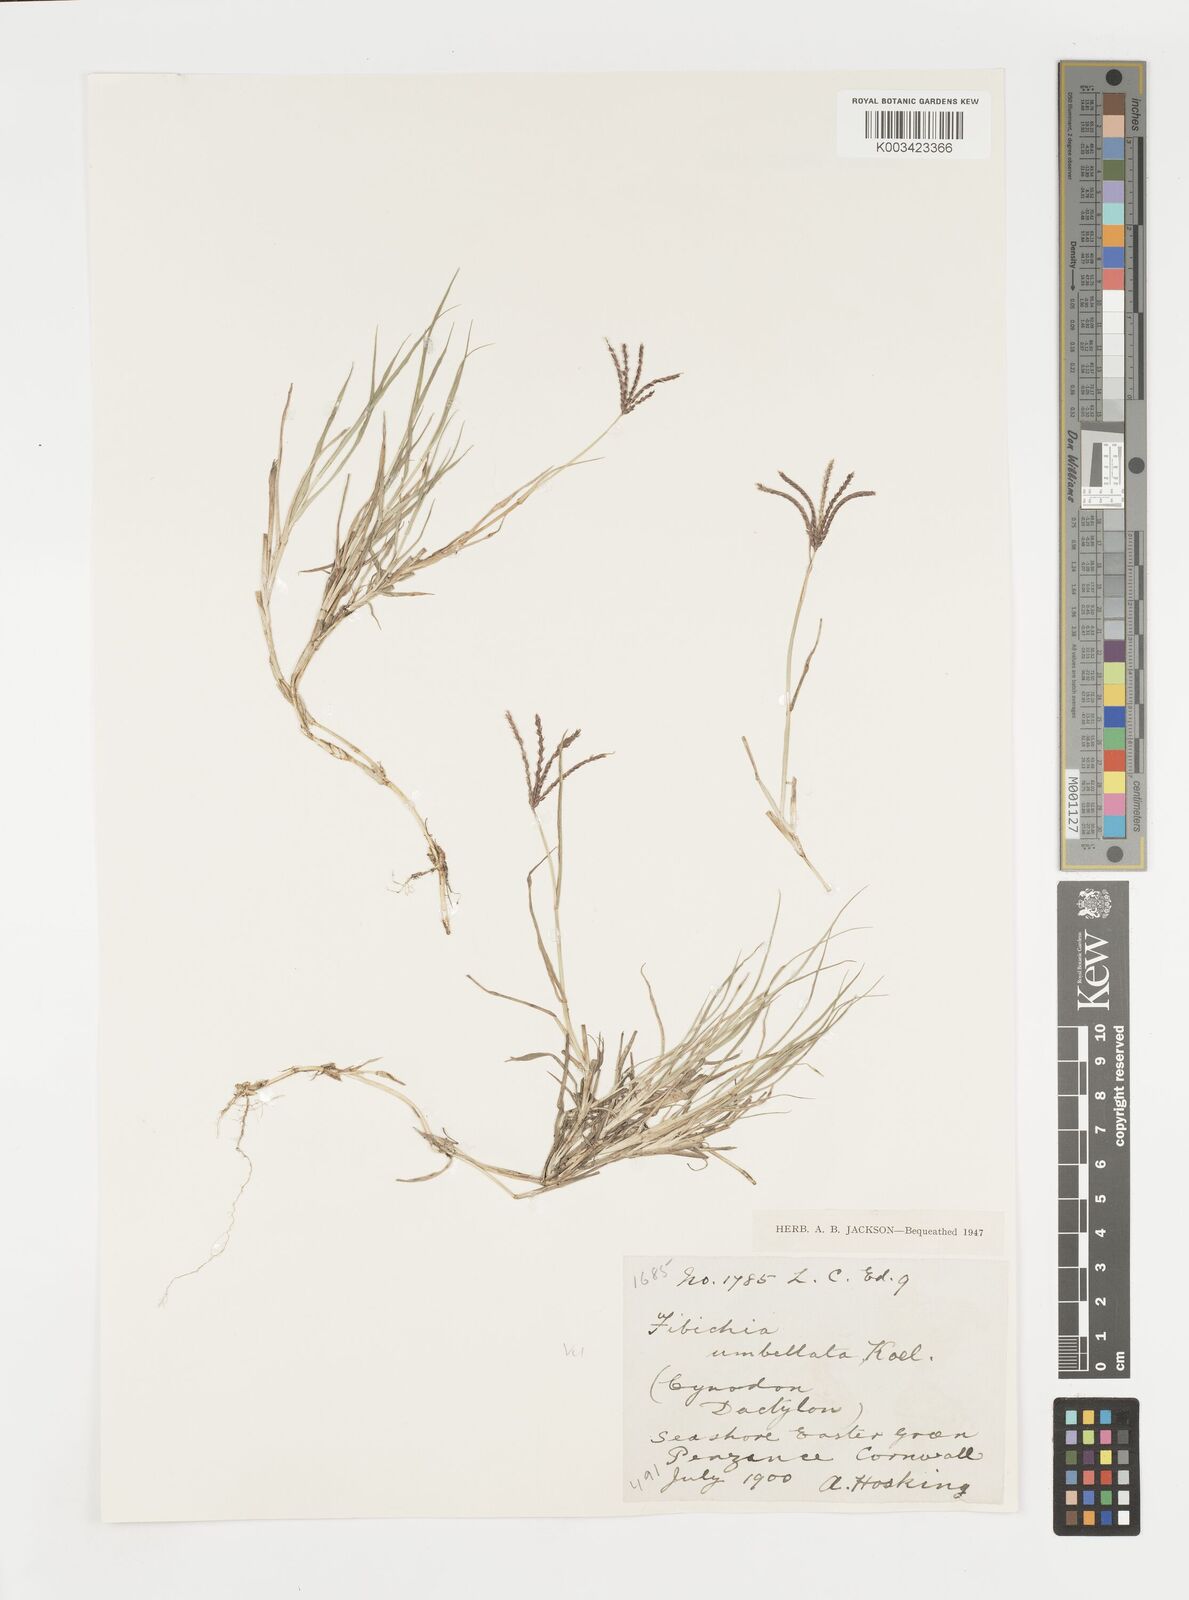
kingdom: Plantae
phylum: Tracheophyta
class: Liliopsida
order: Poales
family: Poaceae
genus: Cynodon
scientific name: Cynodon dactylon
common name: Bermuda grass
